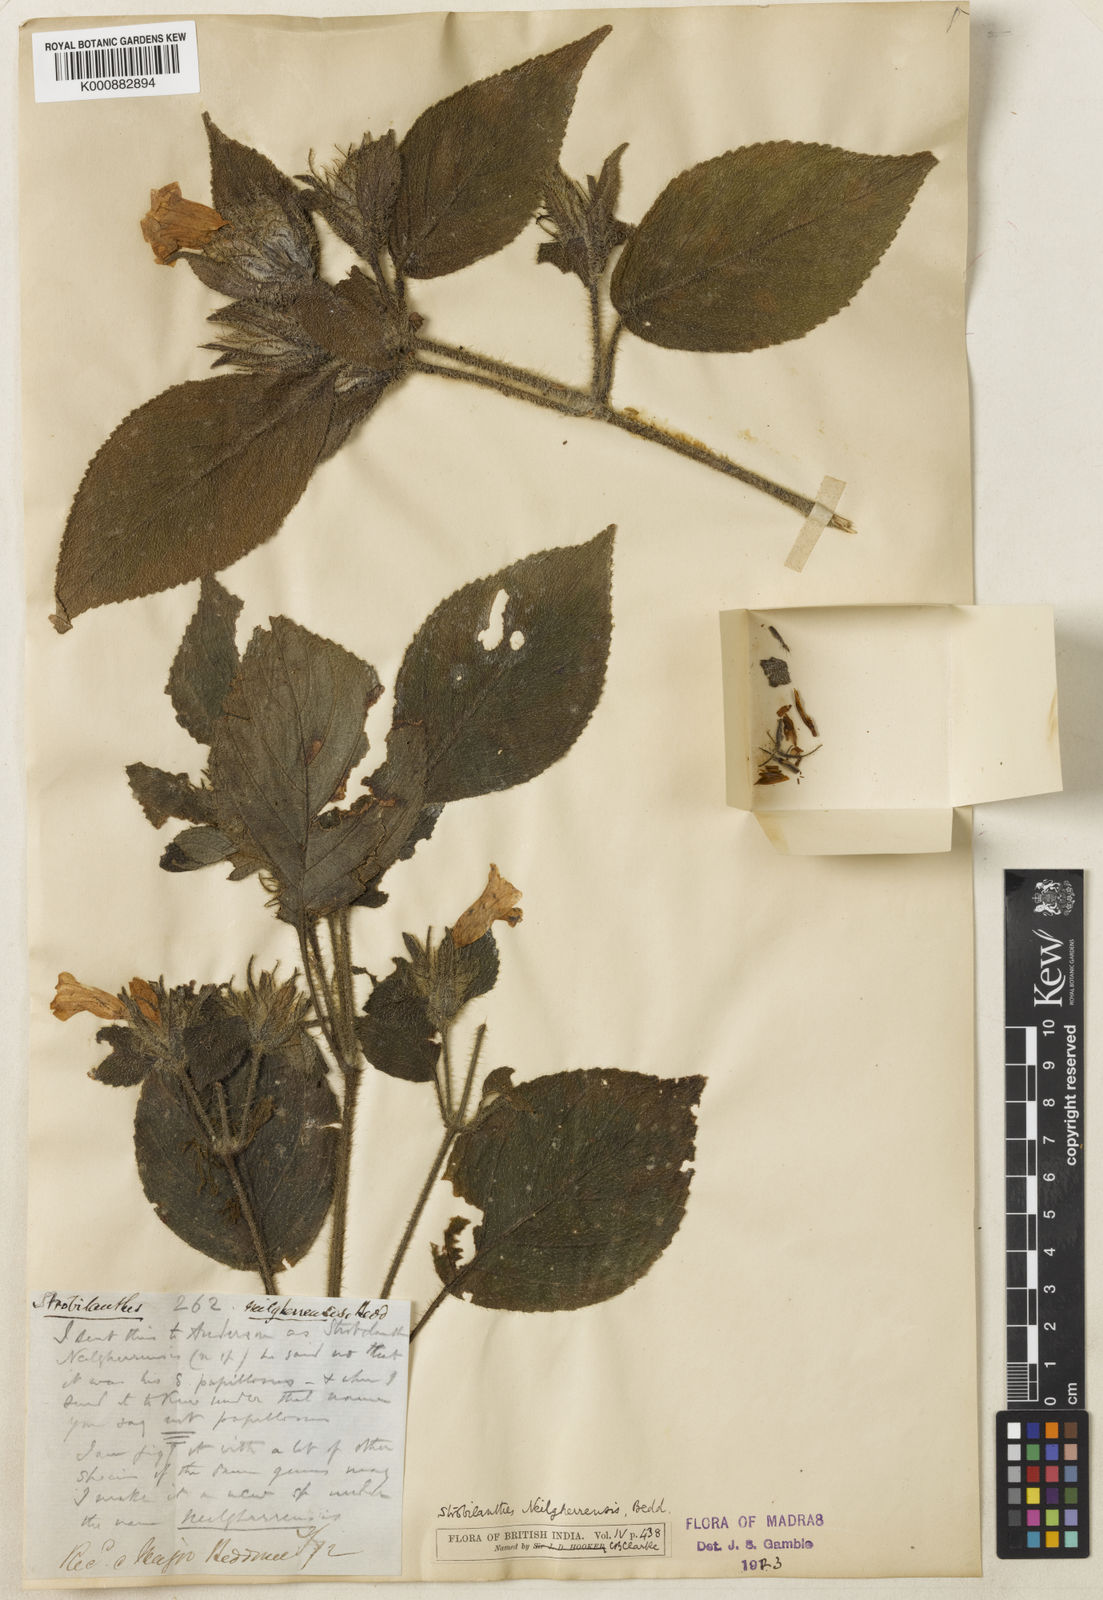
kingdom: Plantae
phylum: Tracheophyta
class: Magnoliopsida
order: Lamiales
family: Acanthaceae
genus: Strobilanthes
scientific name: Strobilanthes neilgherrensis
